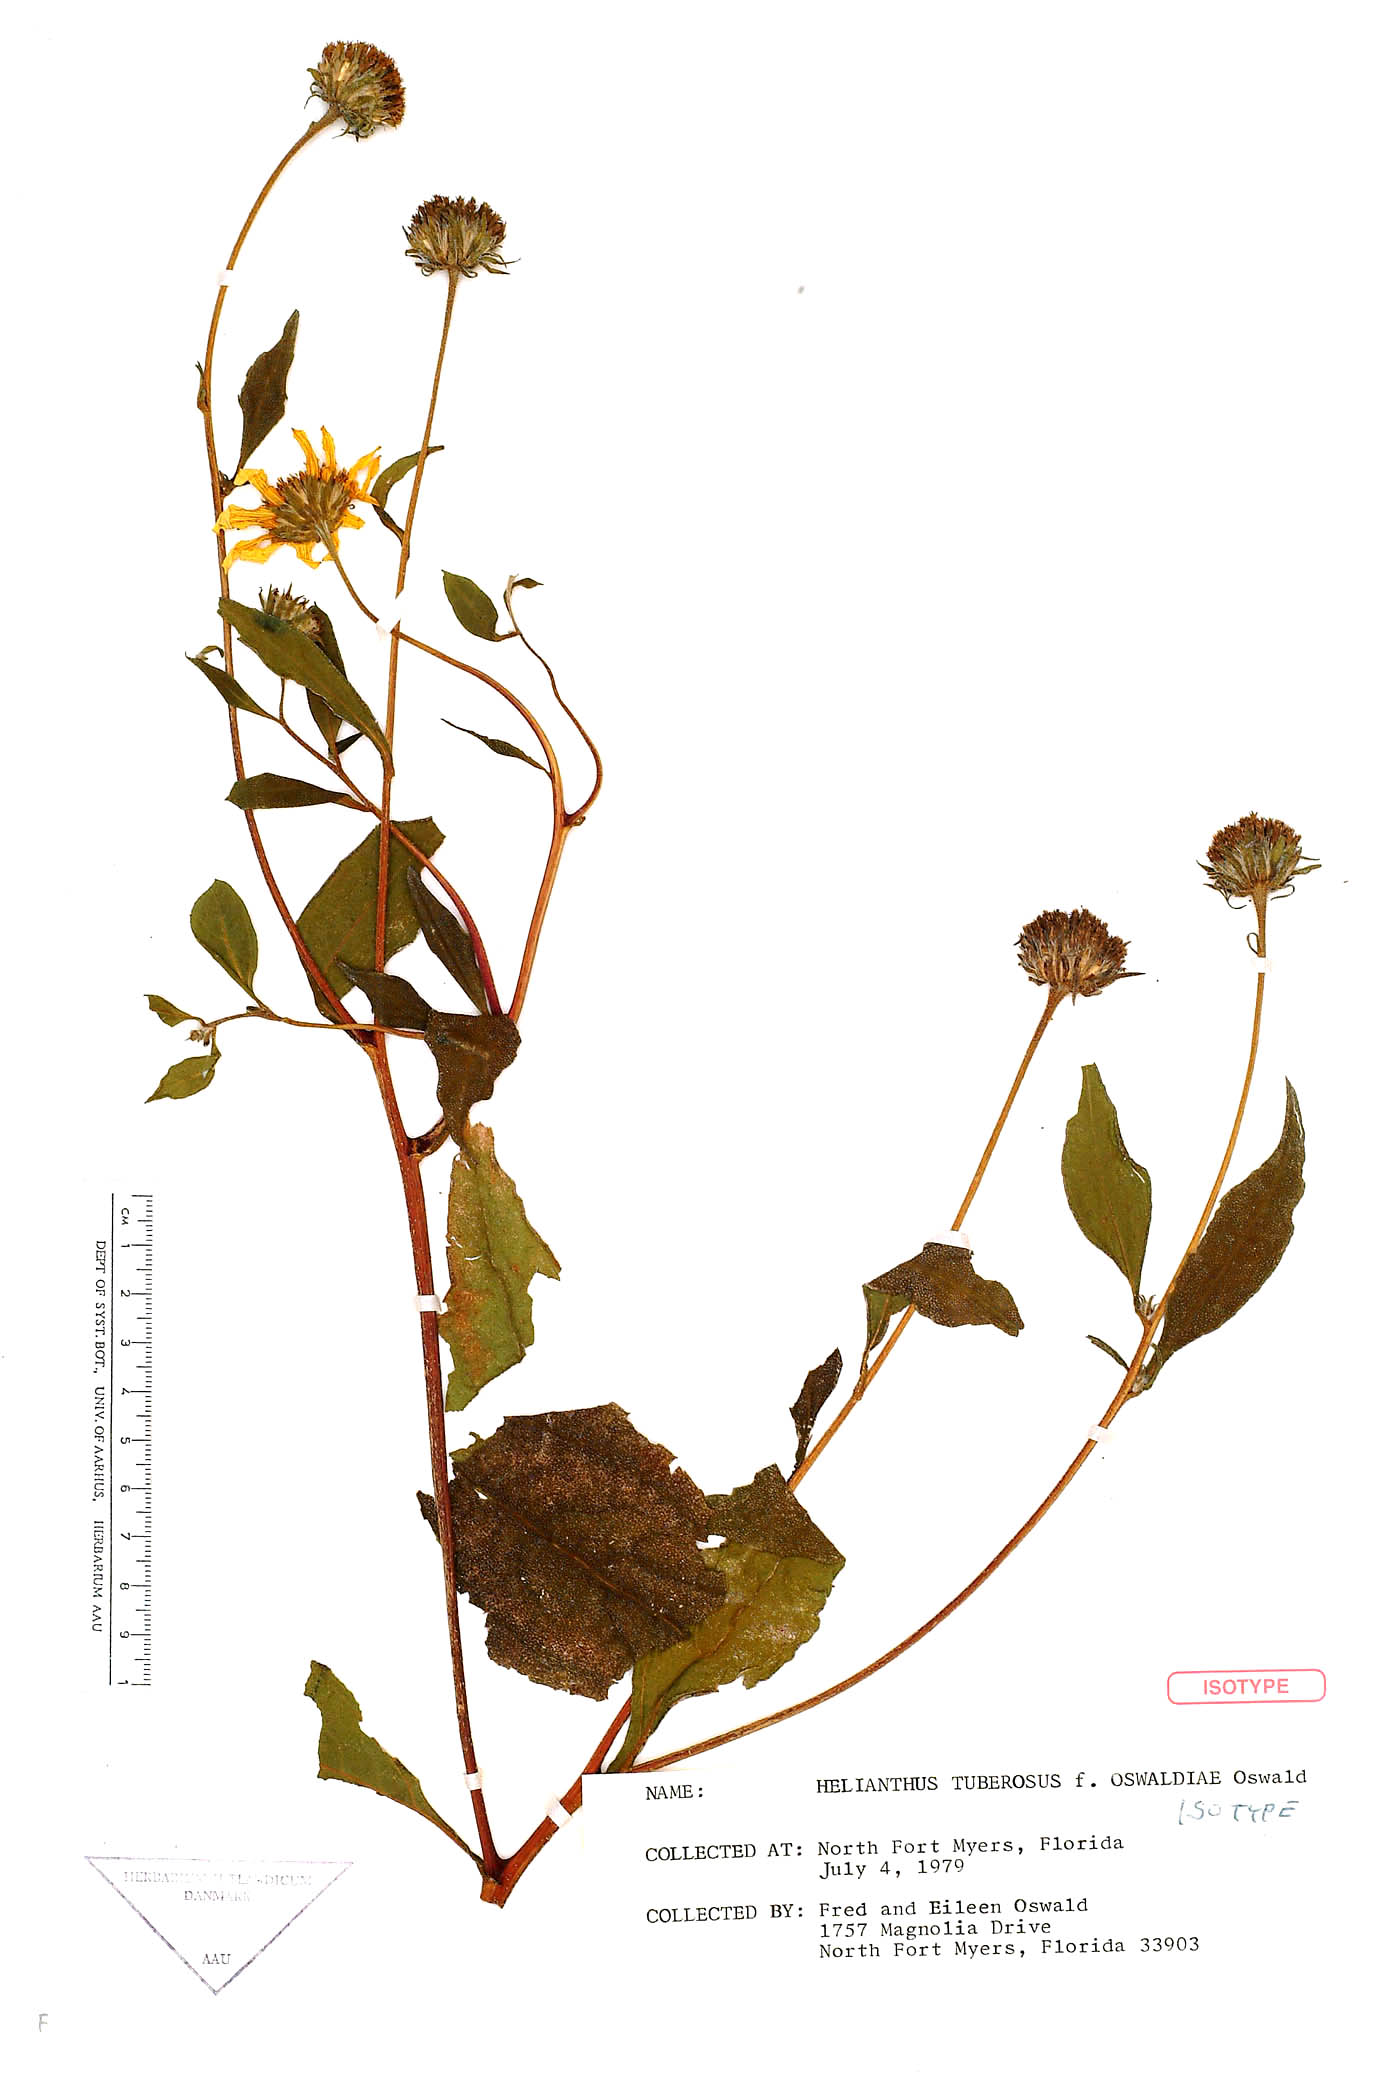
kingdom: Plantae
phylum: Tracheophyta
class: Magnoliopsida
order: Asterales
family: Asteraceae
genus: Helianthus
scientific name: Helianthus tuberosus
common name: Jerusalem artichoke
